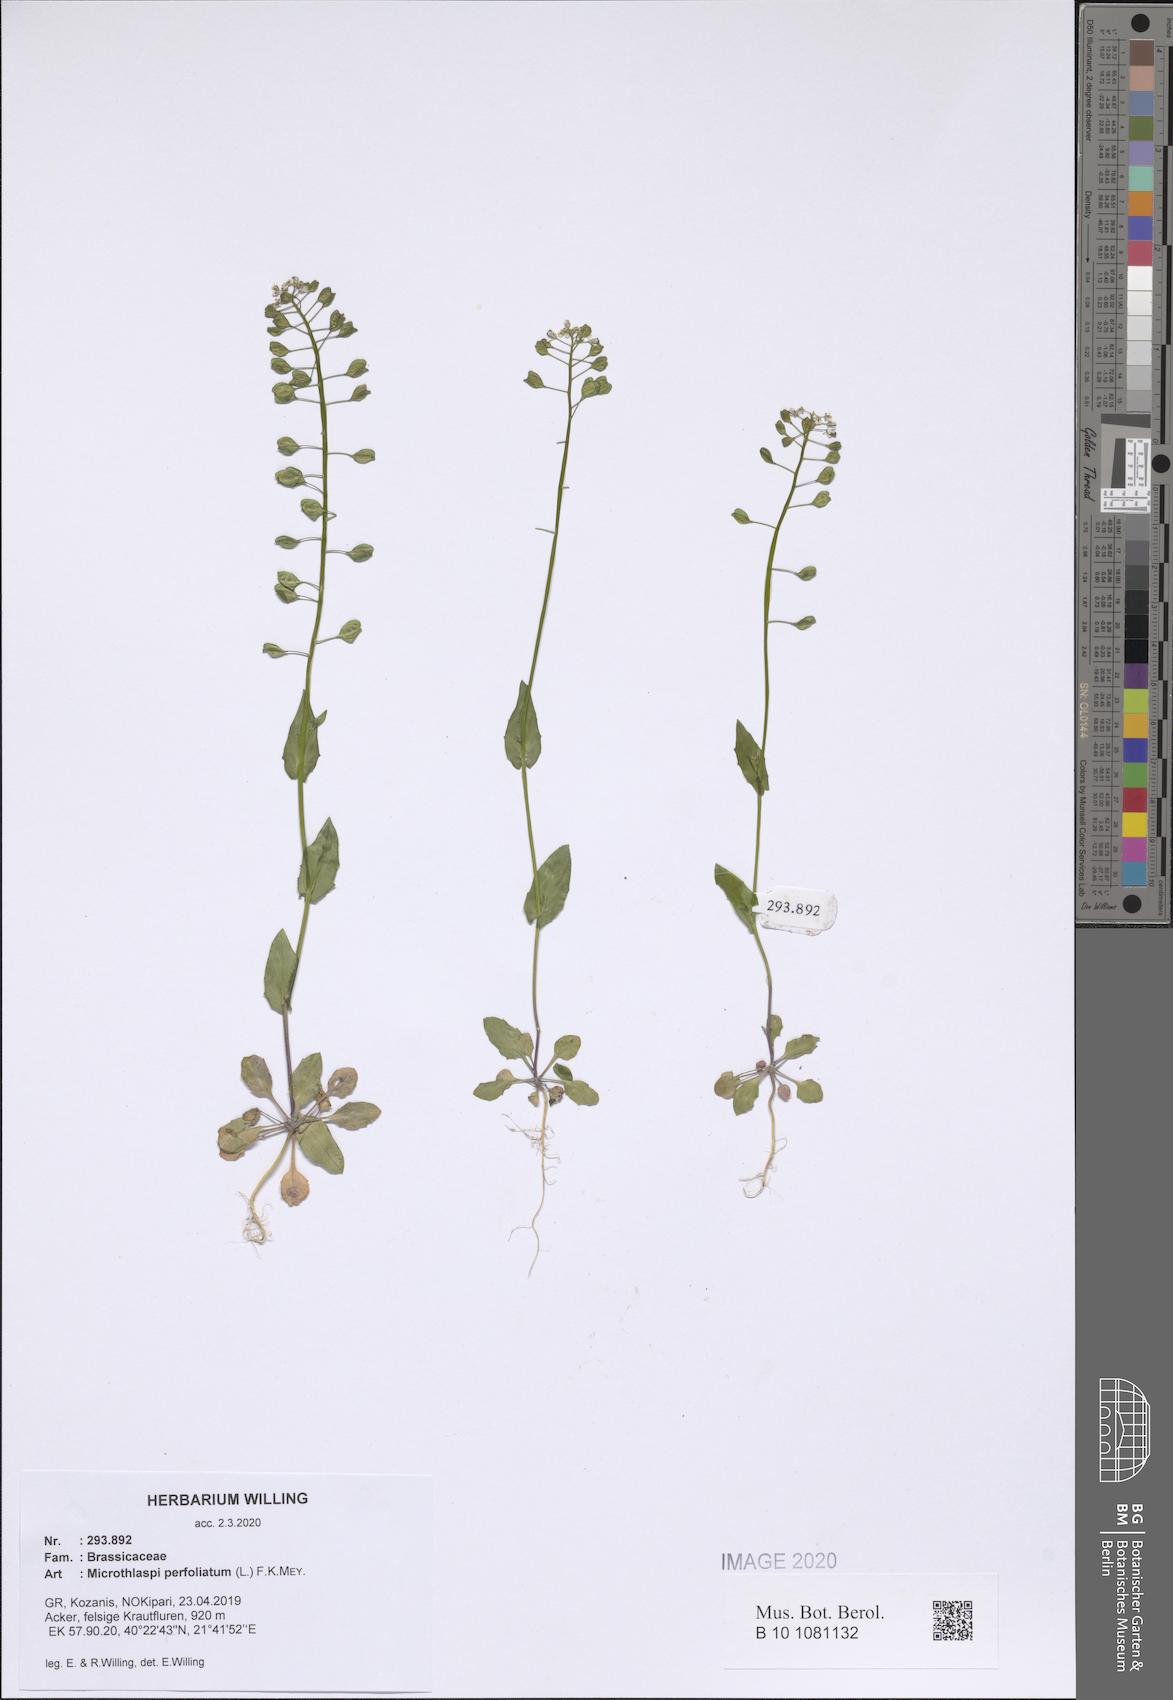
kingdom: Plantae
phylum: Tracheophyta
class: Magnoliopsida
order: Brassicales
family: Brassicaceae
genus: Noccaea
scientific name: Noccaea perfoliata
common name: Perfoliate pennycress
